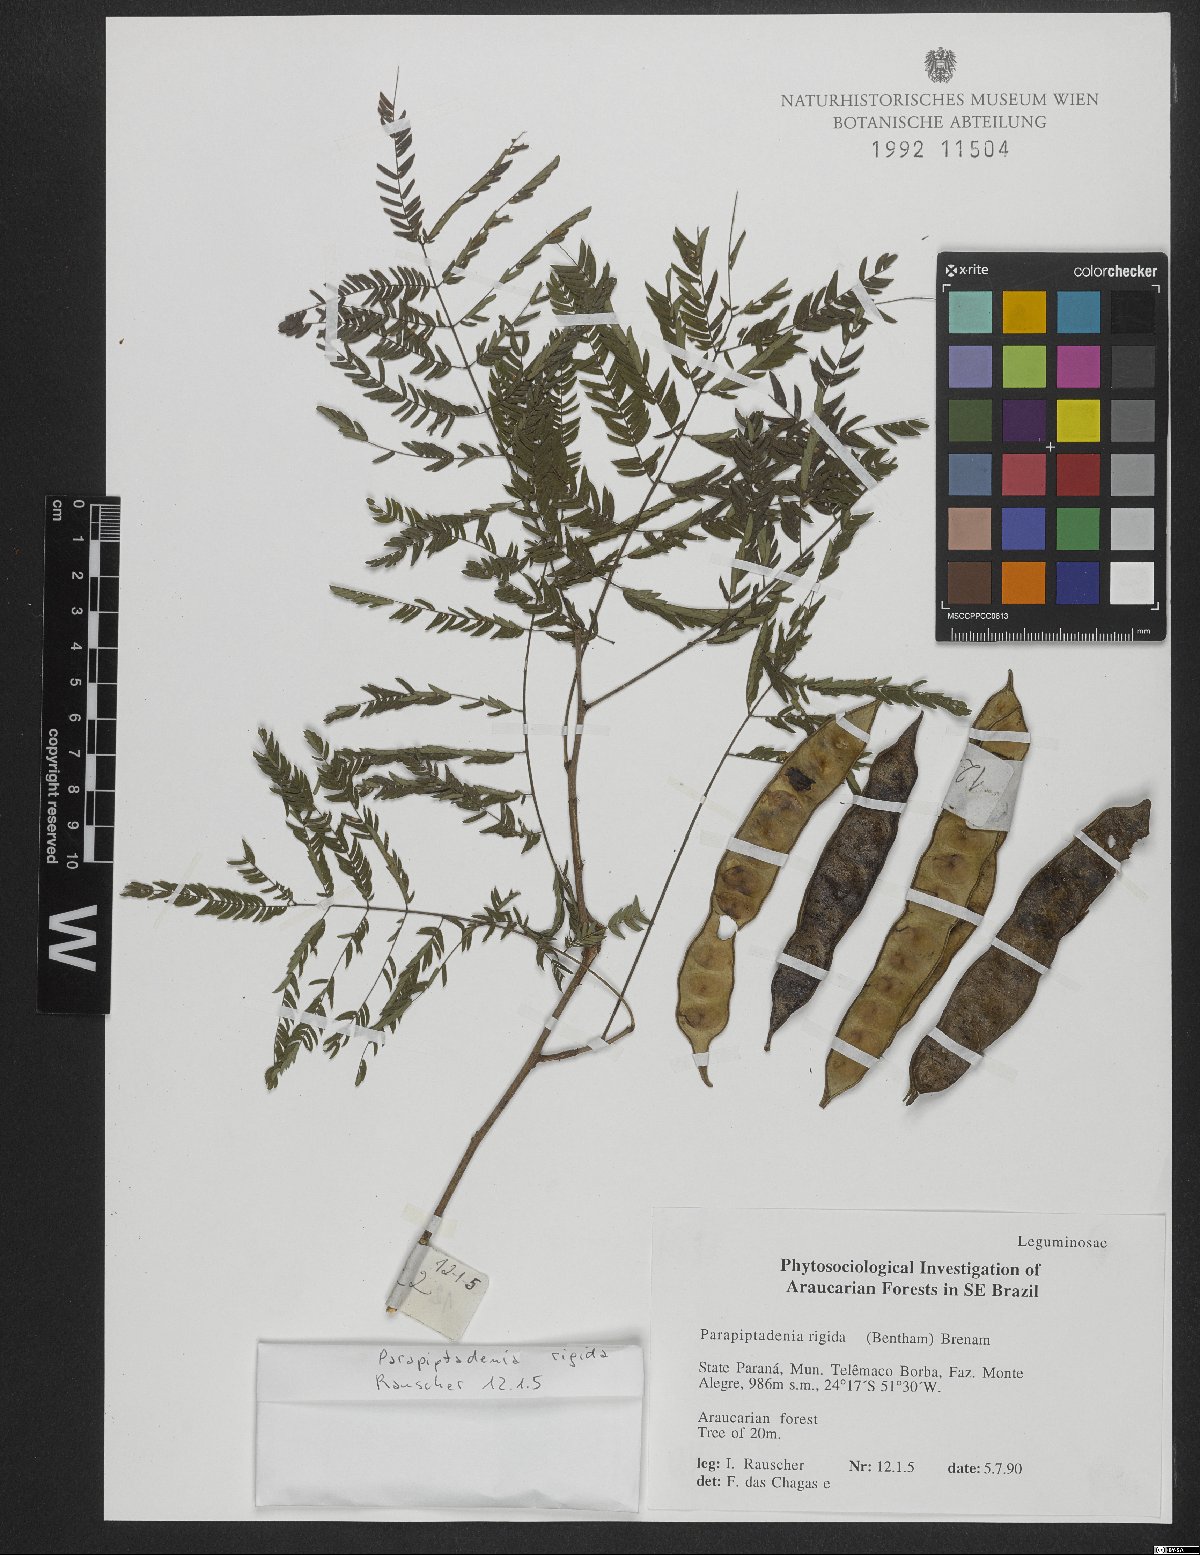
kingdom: Plantae
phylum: Tracheophyta
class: Magnoliopsida
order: Fabales
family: Fabaceae
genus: Parapiptadenia
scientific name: Parapiptadenia rigida
